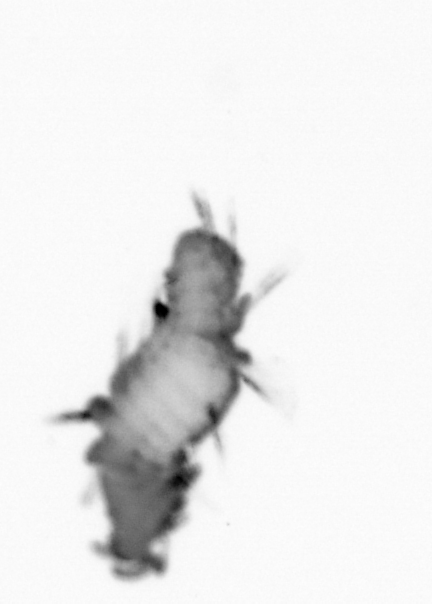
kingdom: Animalia
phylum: Annelida
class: Polychaeta
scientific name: Polychaeta
